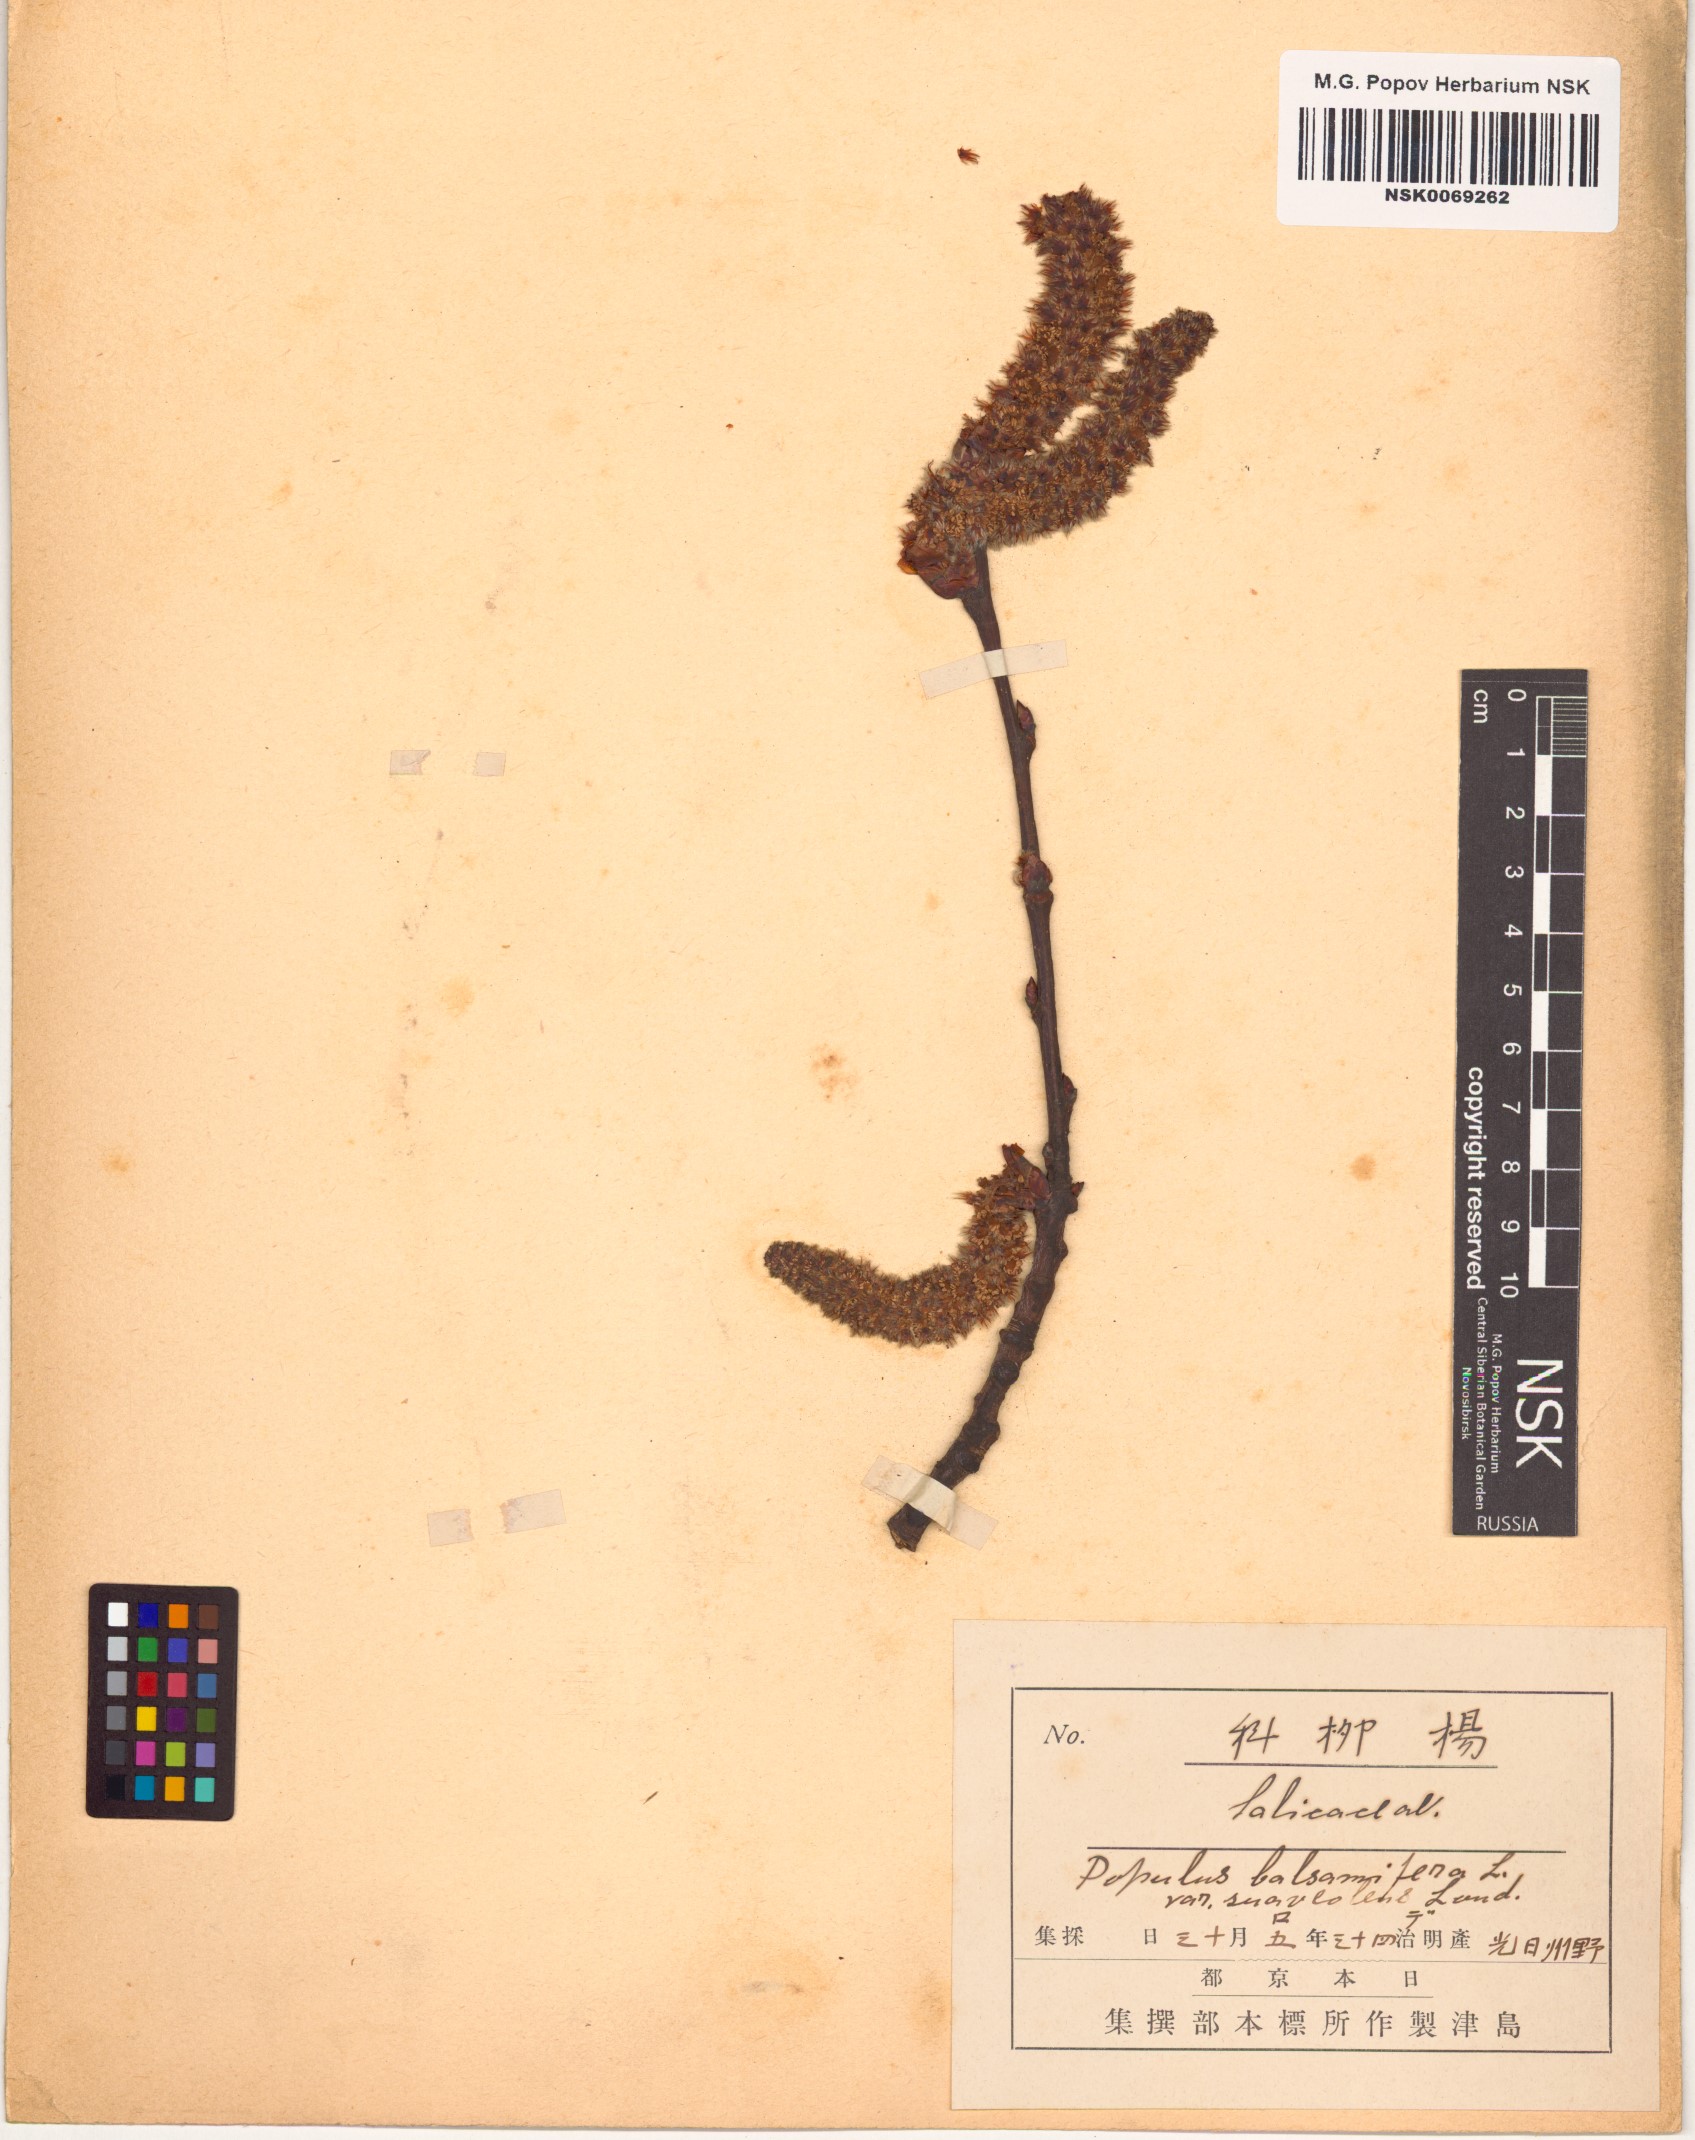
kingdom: Plantae
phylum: Tracheophyta
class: Magnoliopsida
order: Malpighiales
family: Salicaceae
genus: Populus
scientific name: Populus suaveolens
